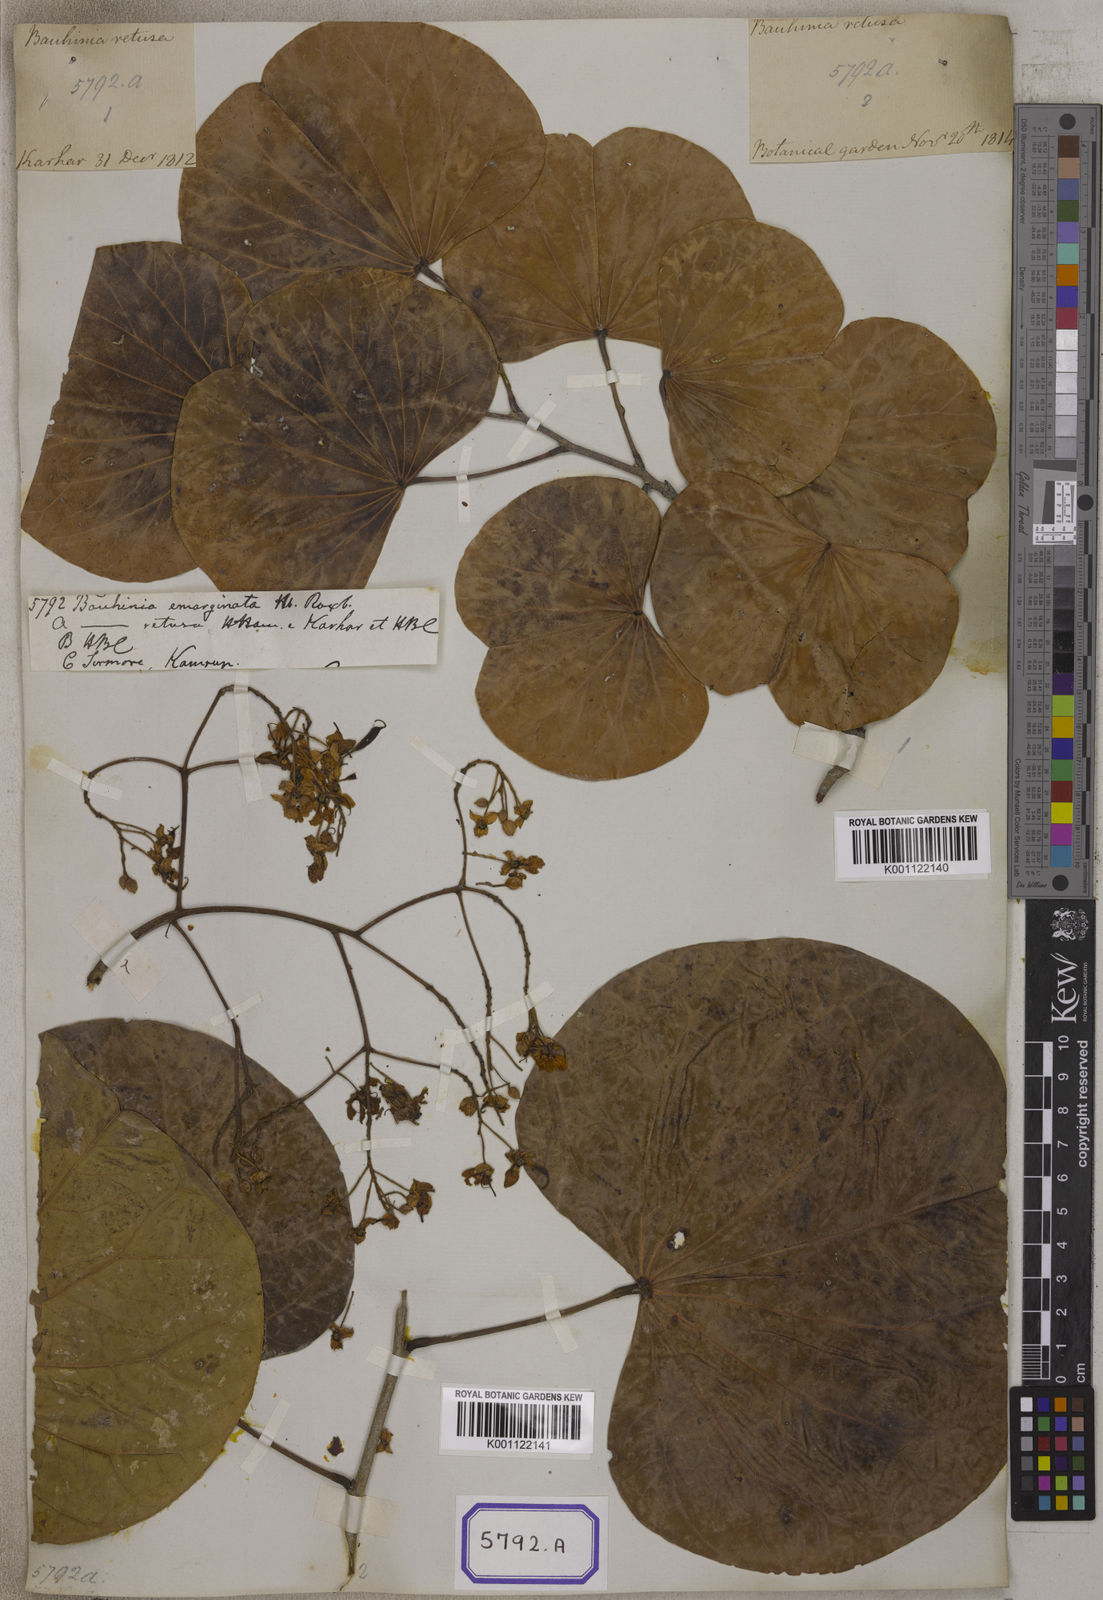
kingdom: Plantae
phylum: Tracheophyta
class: Magnoliopsida
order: Fabales
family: Fabaceae
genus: Bauhinia
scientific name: Bauhinia
